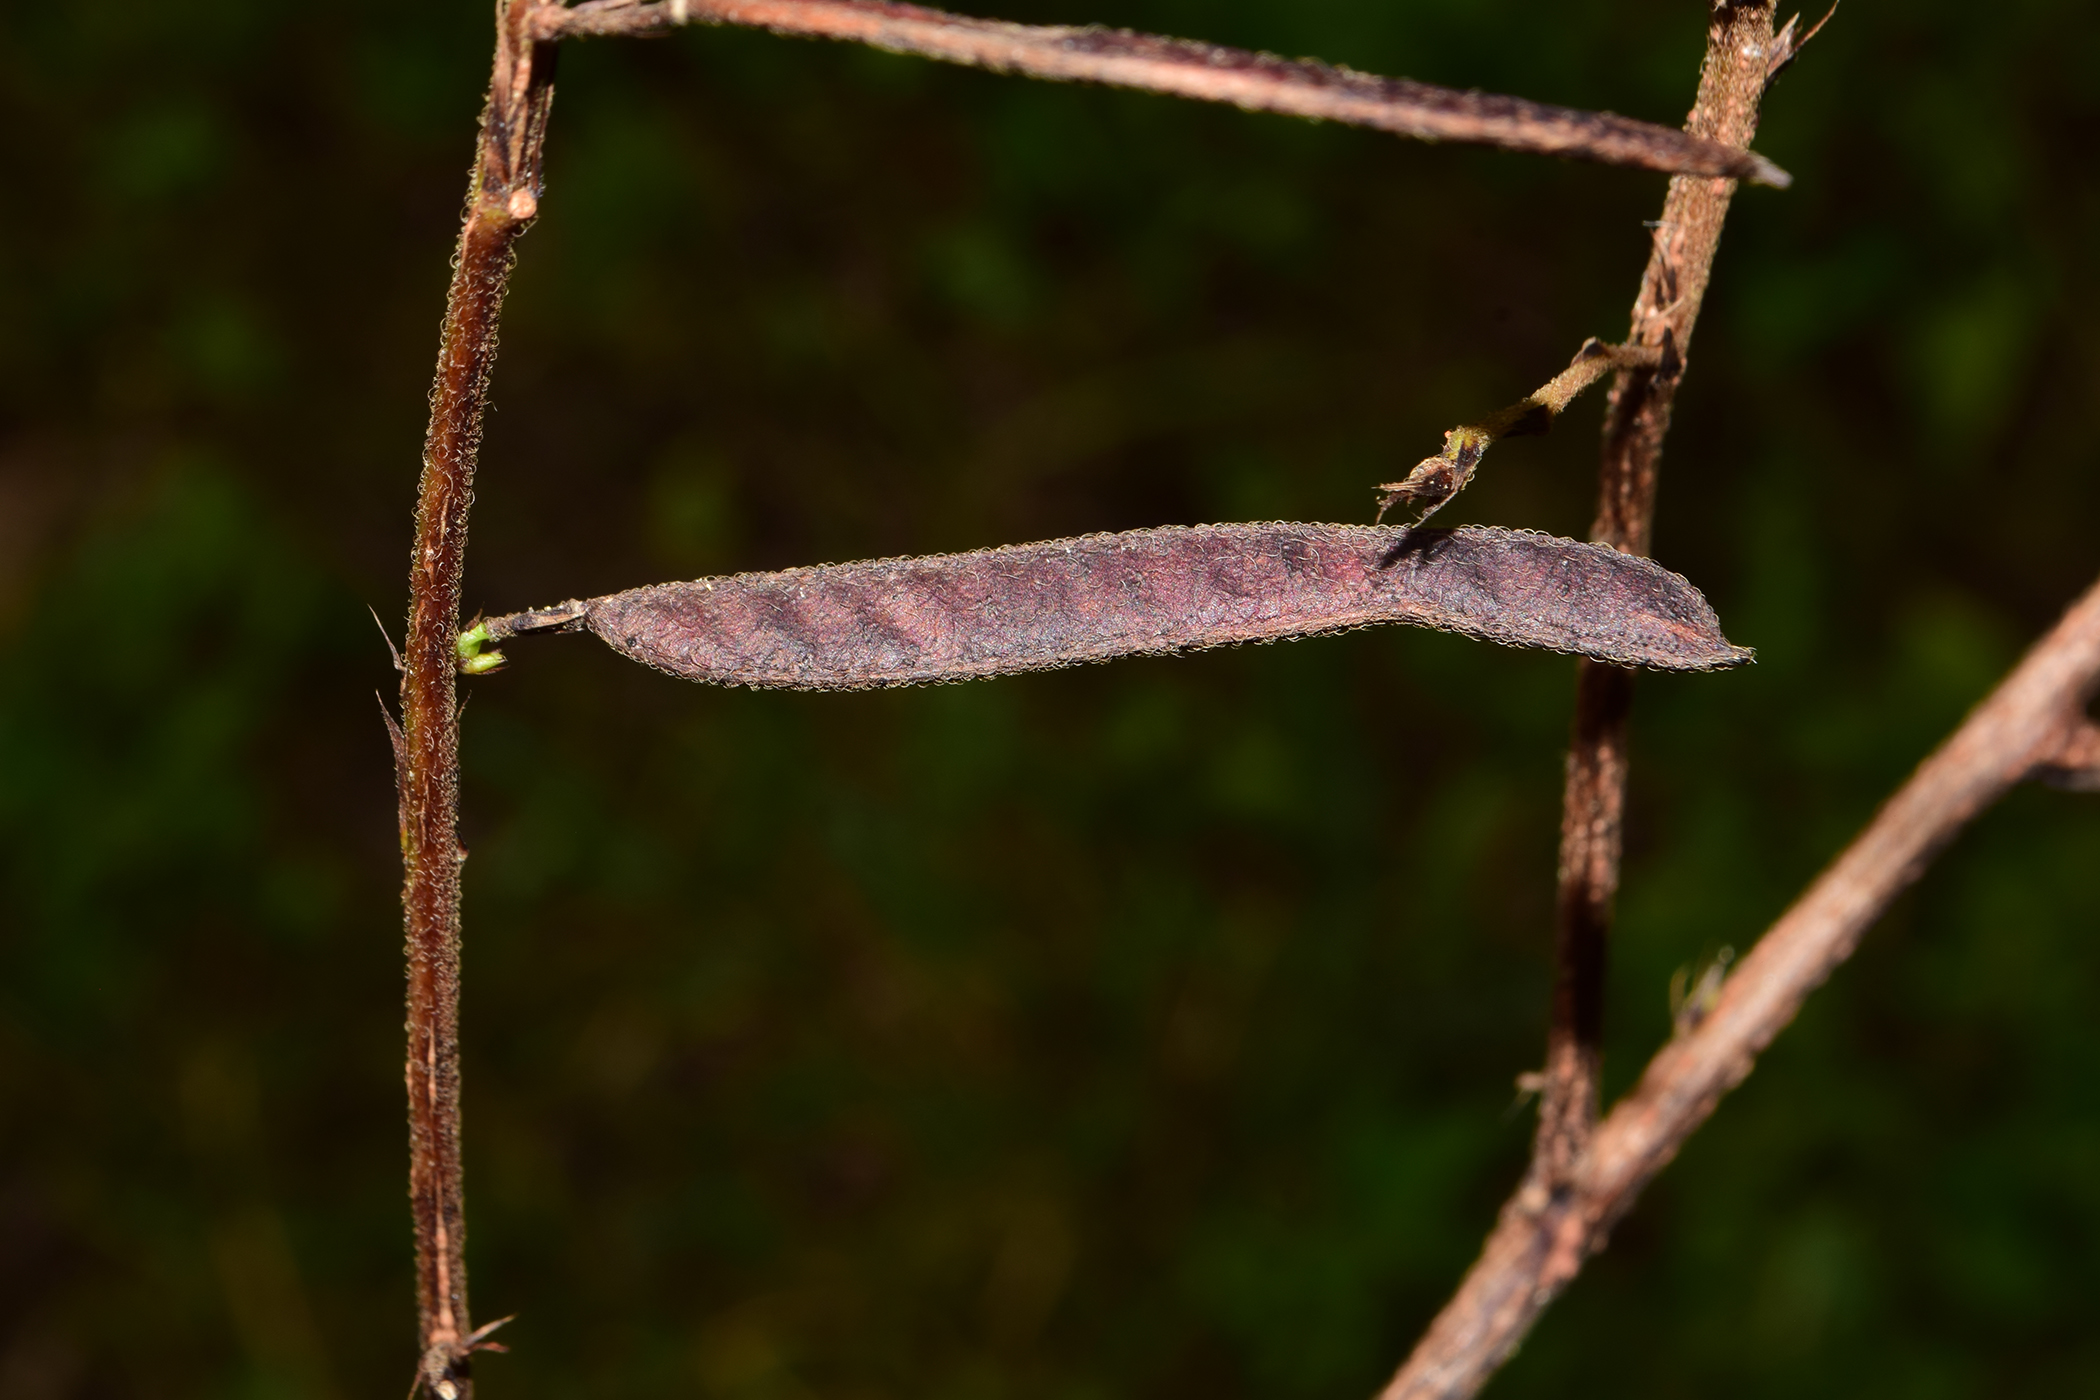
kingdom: Plantae
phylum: Tracheophyta
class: Magnoliopsida
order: Fabales
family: Fabaceae
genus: Chamaecrista
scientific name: Chamaecrista pumila
